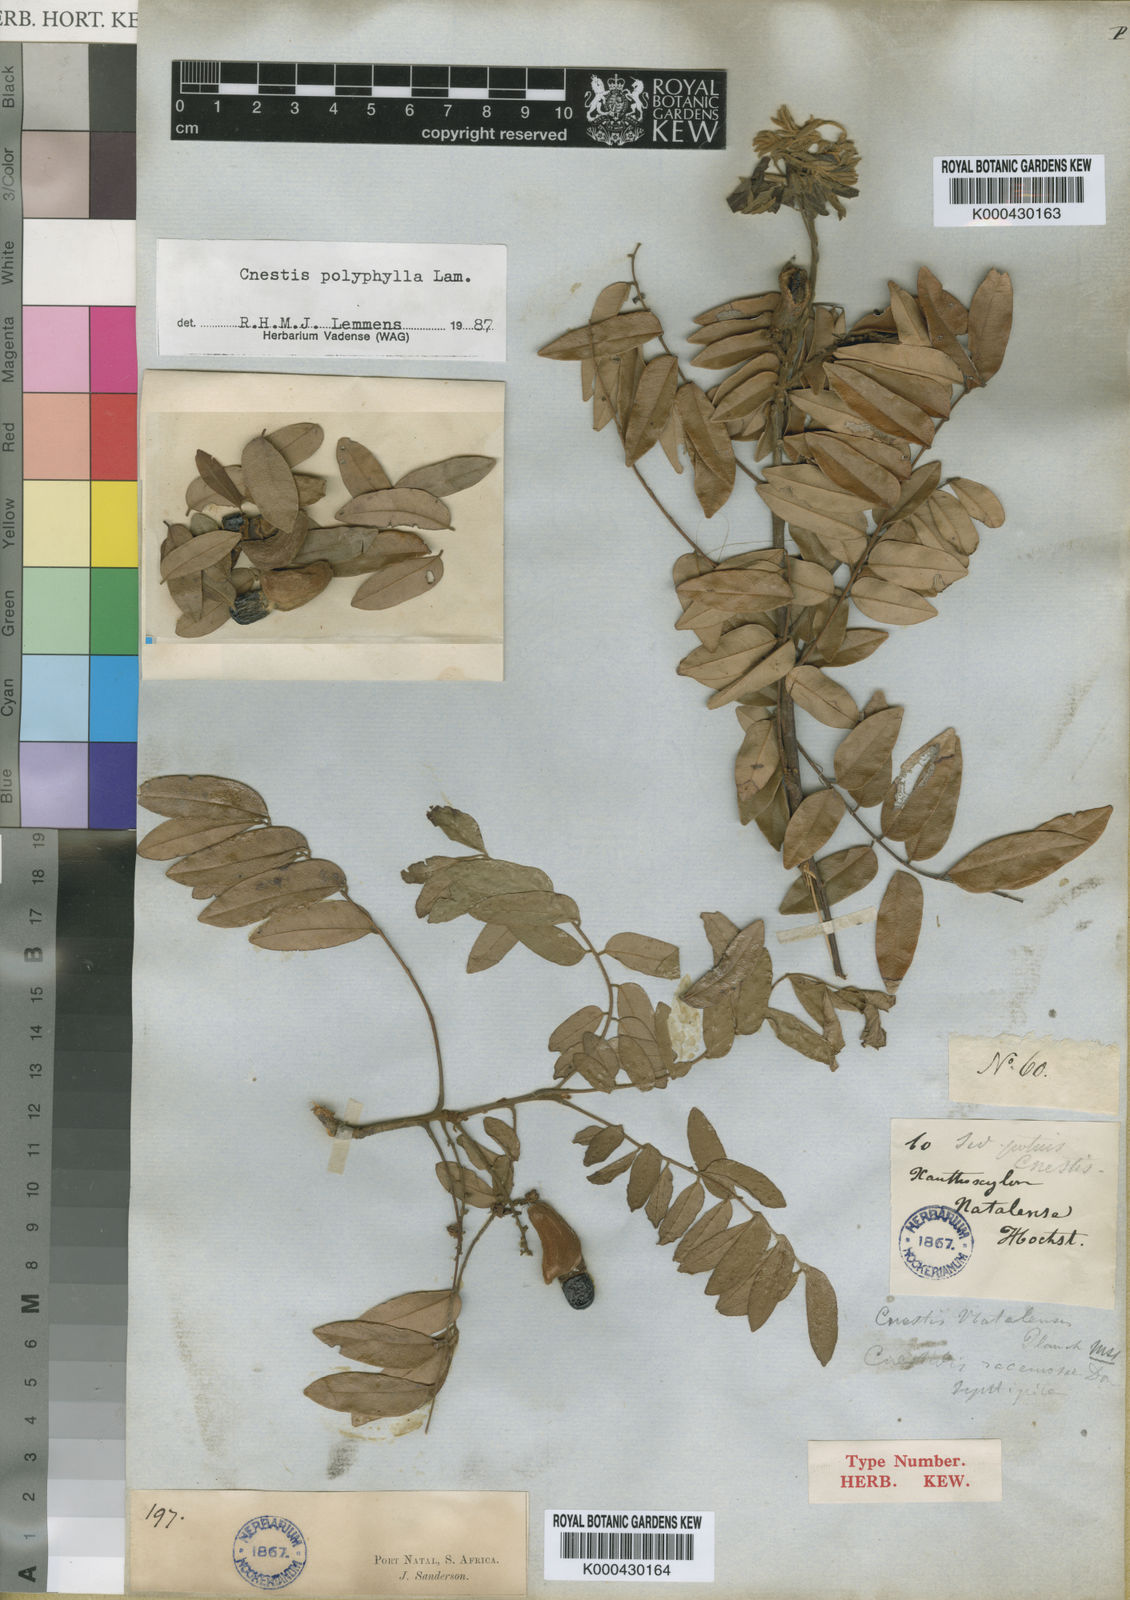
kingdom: Plantae
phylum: Tracheophyta
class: Magnoliopsida
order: Oxalidales
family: Connaraceae
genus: Cnestis
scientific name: Cnestis polyphylla
